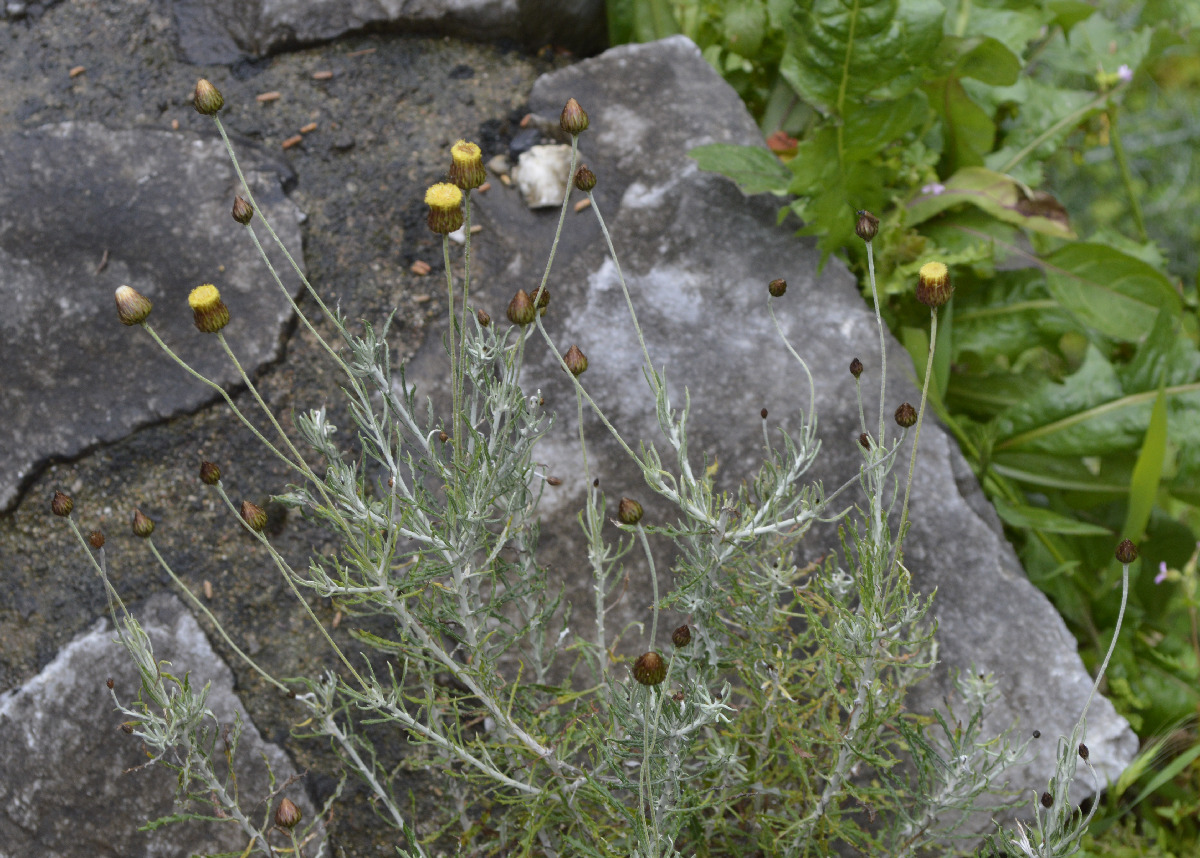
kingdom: Plantae
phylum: Tracheophyta
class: Magnoliopsida
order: Asterales
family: Asteraceae
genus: Phagnalon
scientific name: Phagnalon rupestre
